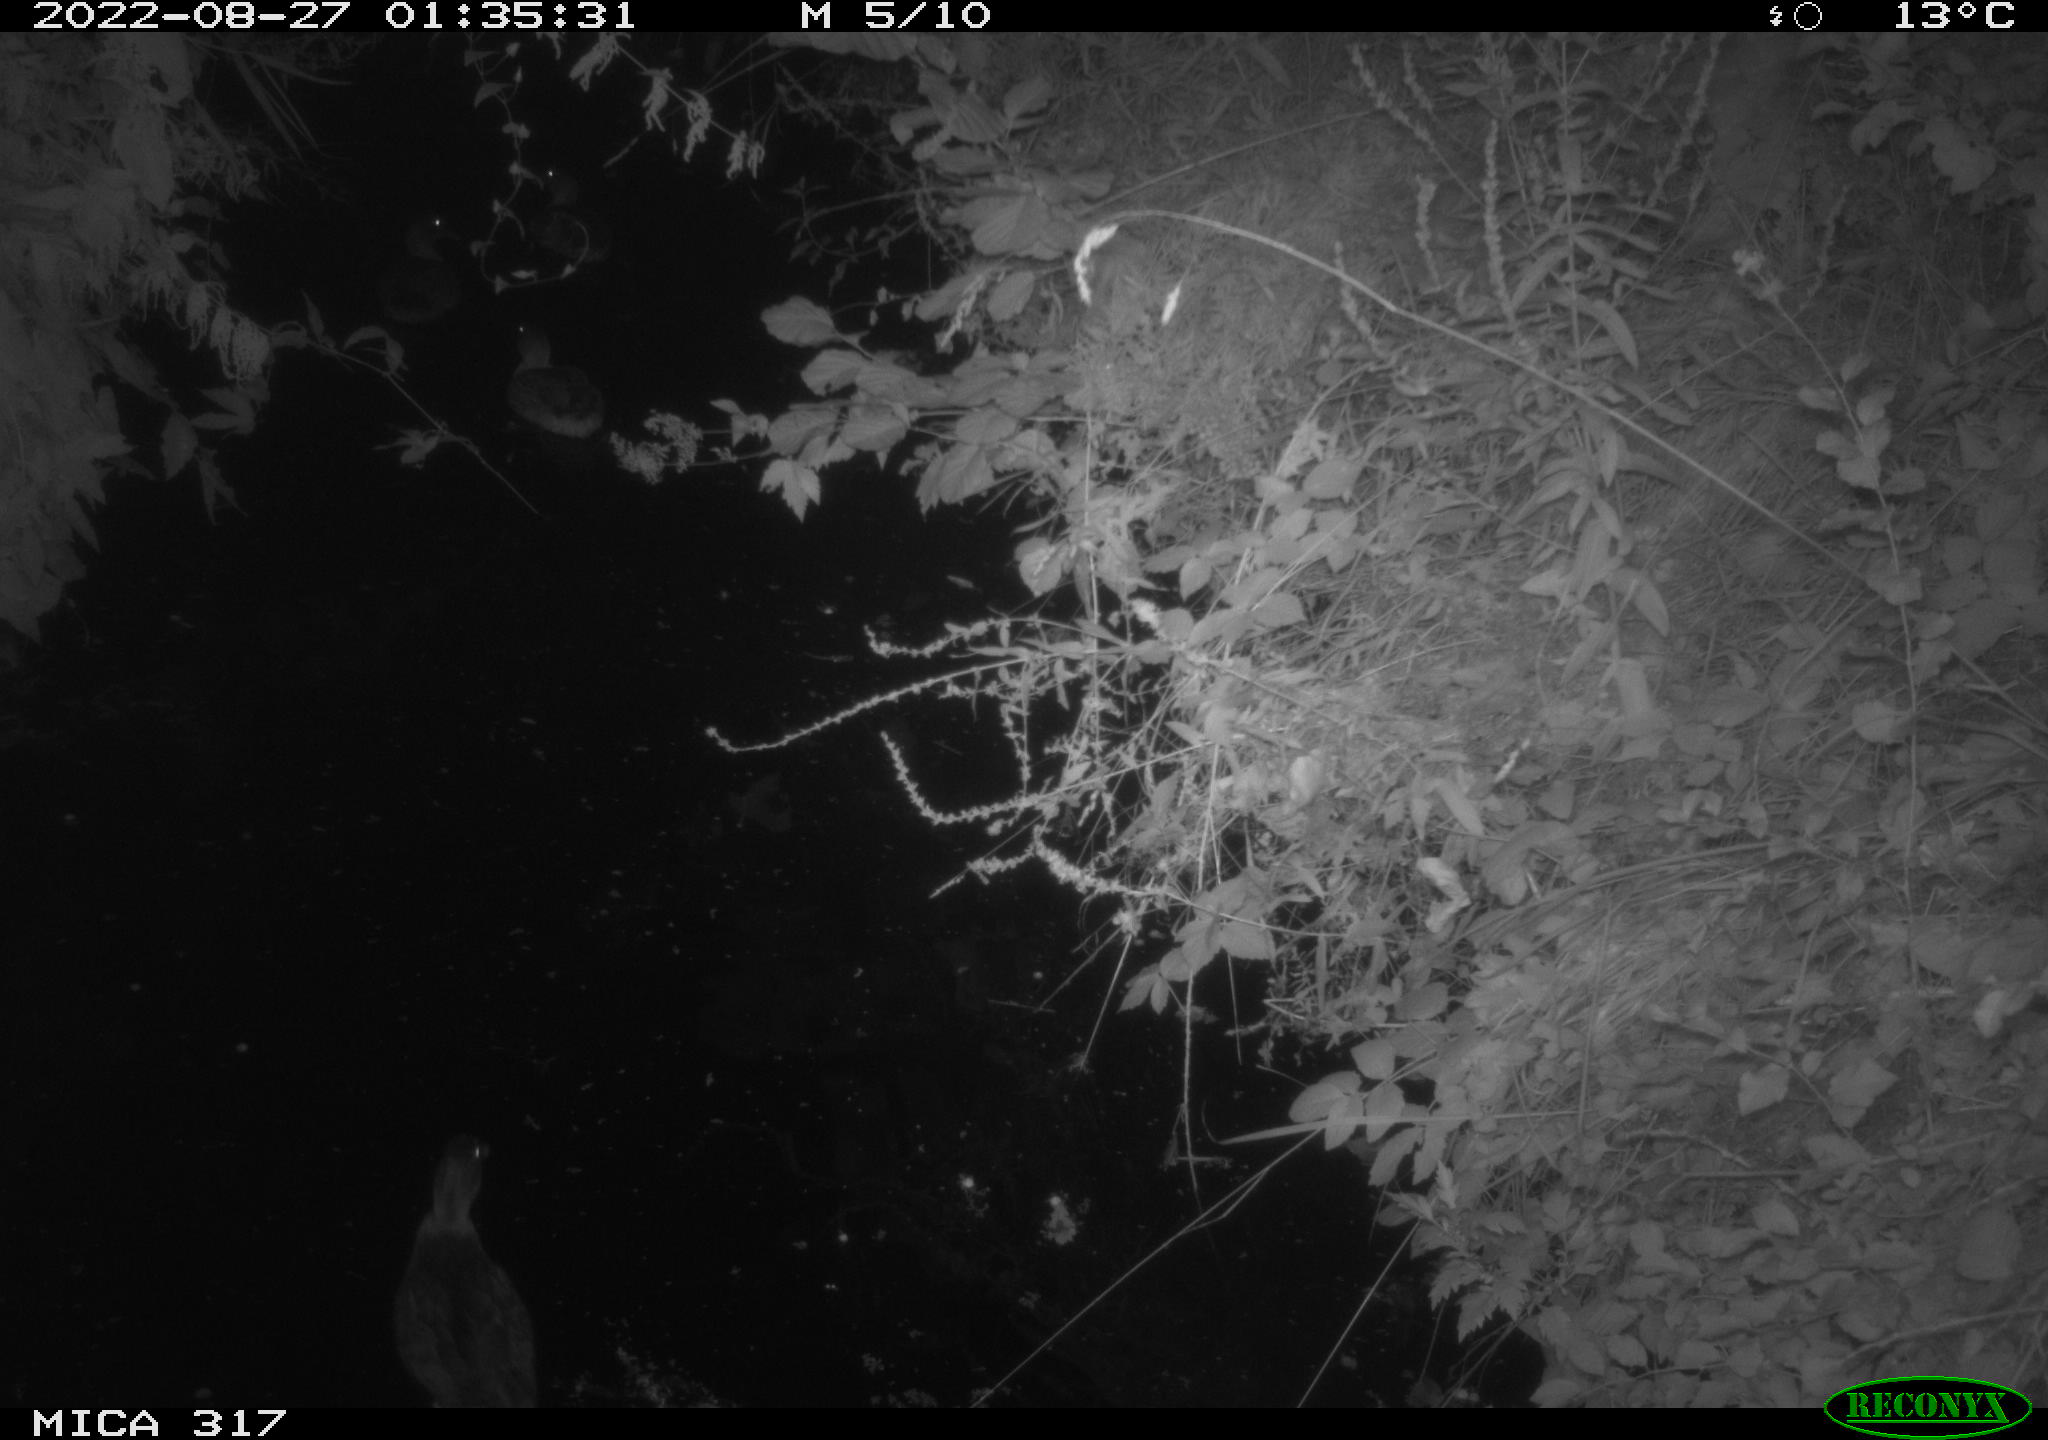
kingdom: Animalia
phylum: Chordata
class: Aves
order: Gruiformes
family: Rallidae
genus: Fulica
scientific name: Fulica atra
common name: Eurasian coot
